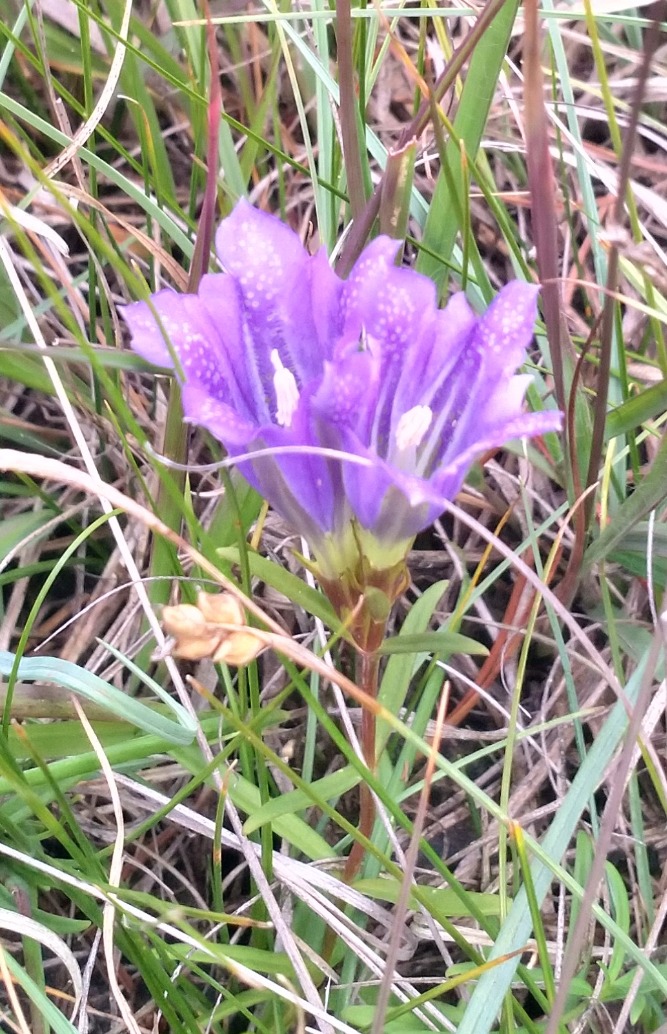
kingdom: Plantae
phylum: Tracheophyta
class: Magnoliopsida
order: Gentianales
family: Gentianaceae
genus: Gentiana
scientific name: Gentiana pneumonanthe
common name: Klokke-ensian
